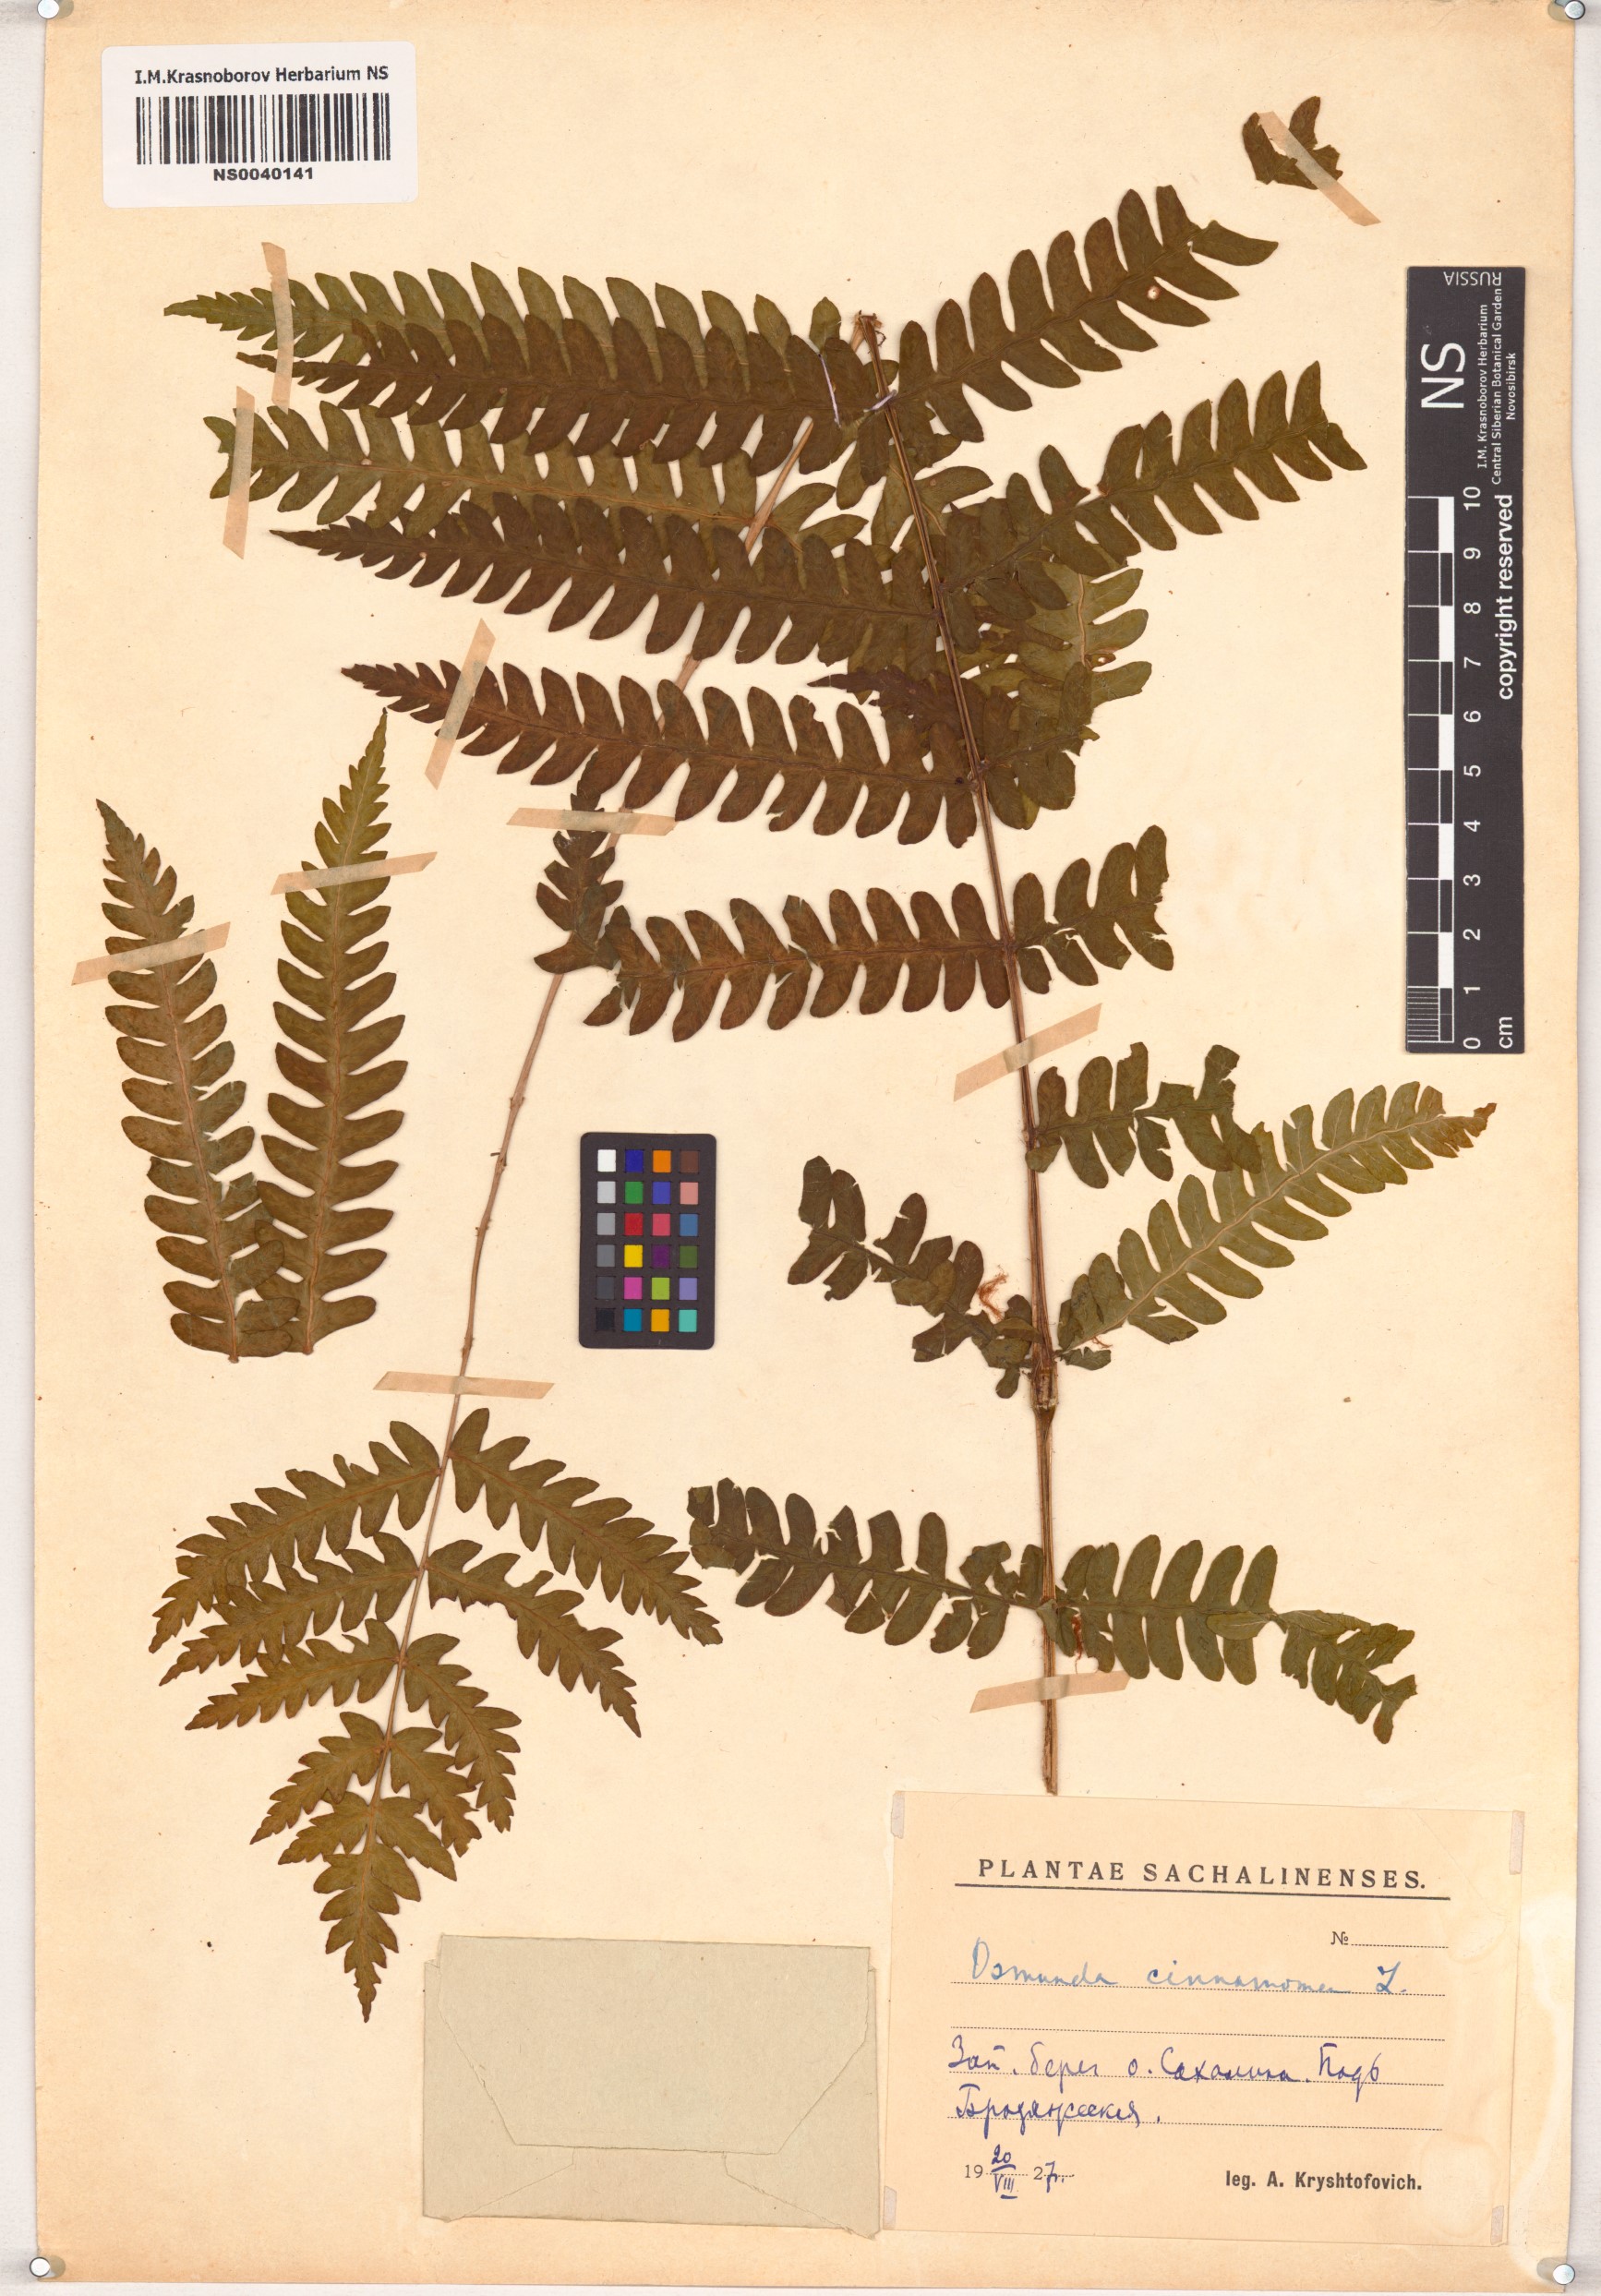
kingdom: Plantae
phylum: Tracheophyta
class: Polypodiopsida
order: Osmundales
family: Osmundaceae
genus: Osmundastrum
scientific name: Osmundastrum cinnamomeum
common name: Cinnamon fern
